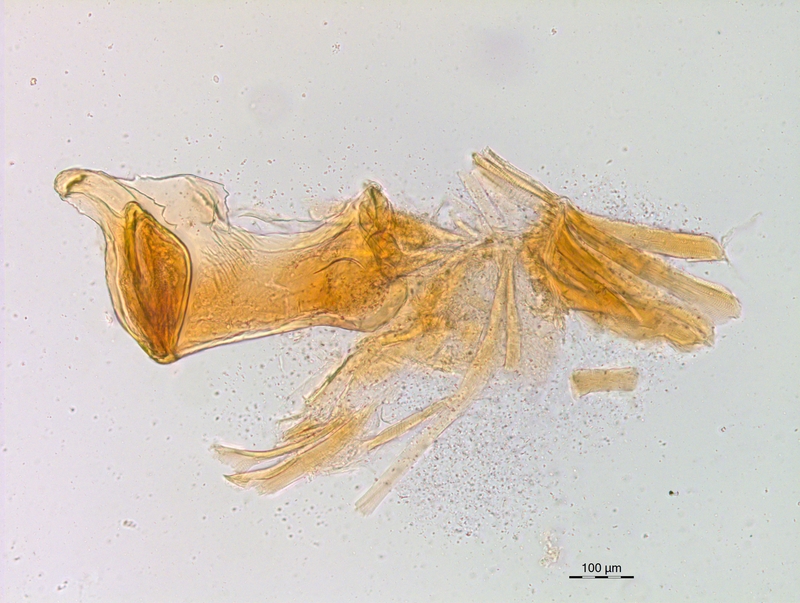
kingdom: Animalia
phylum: Arthropoda
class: Diplopoda
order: Chordeumatida
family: Craspedosomatidae
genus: Craspedosoma
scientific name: Craspedosoma rawlinsii
